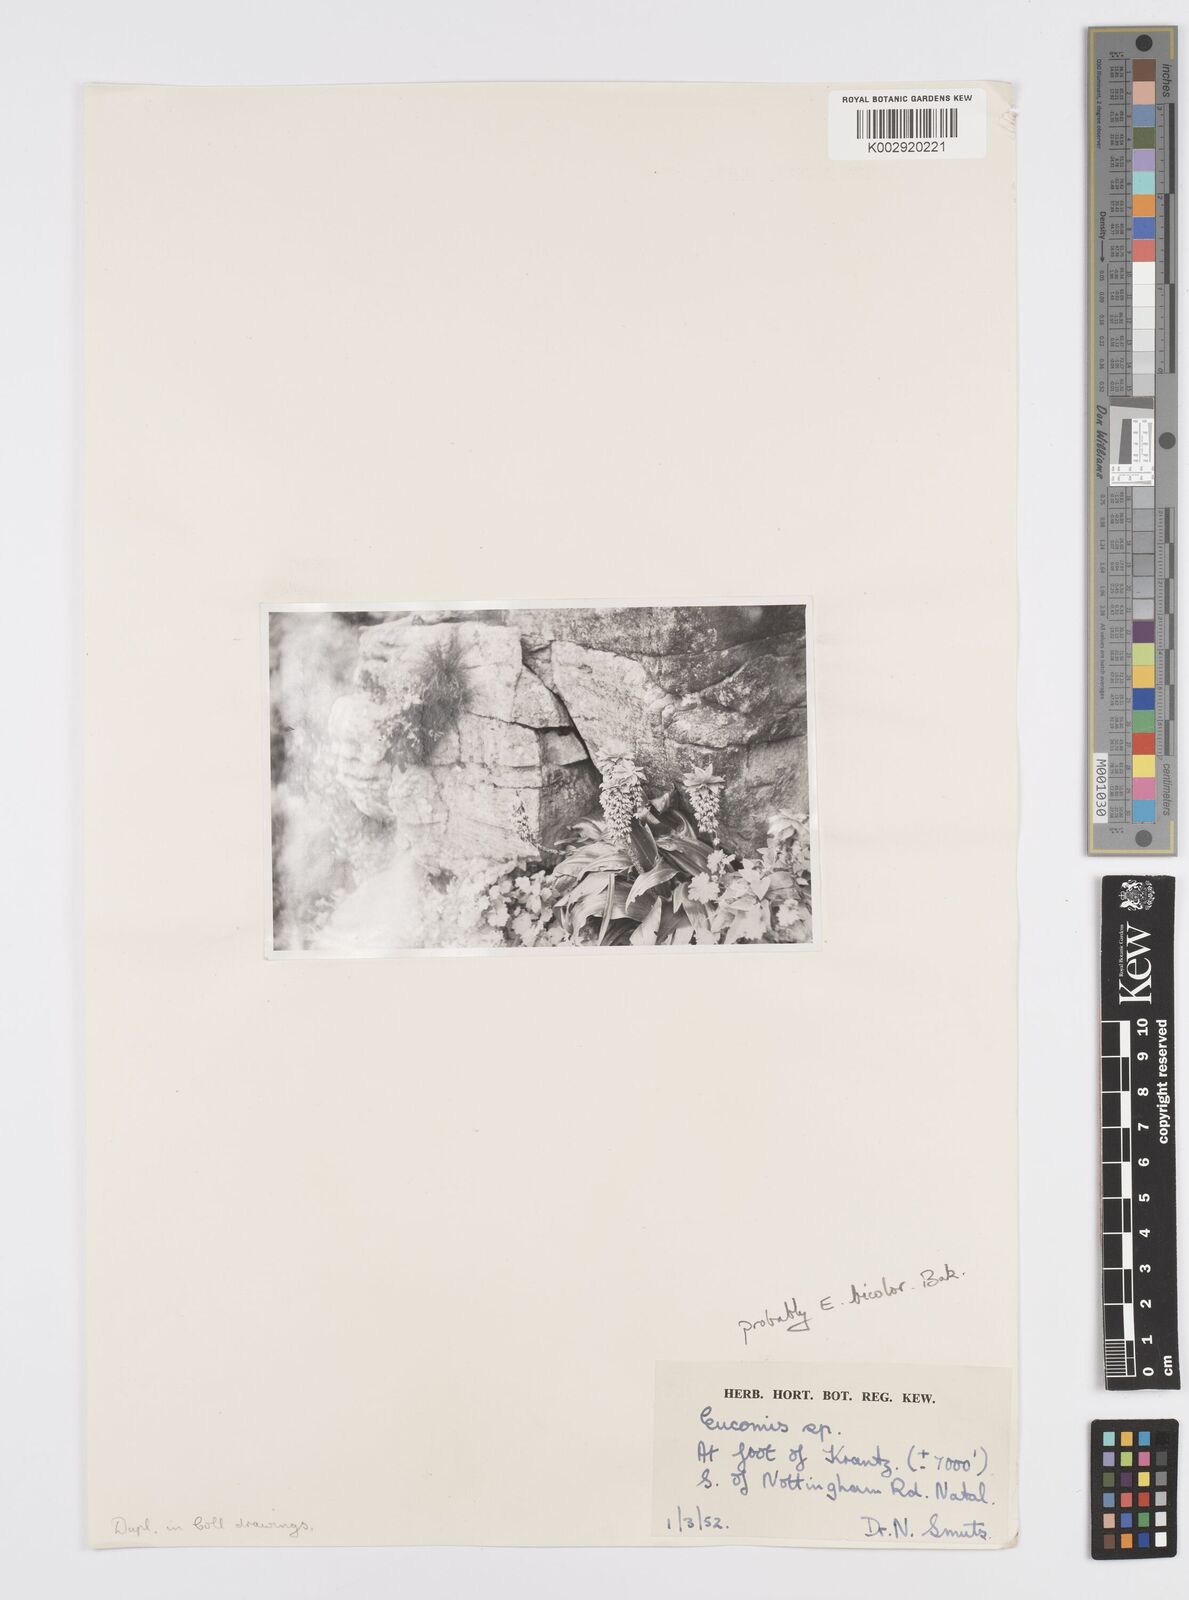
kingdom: Plantae
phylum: Tracheophyta
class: Liliopsida
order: Asparagales
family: Asparagaceae
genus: Eucomis
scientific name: Eucomis
